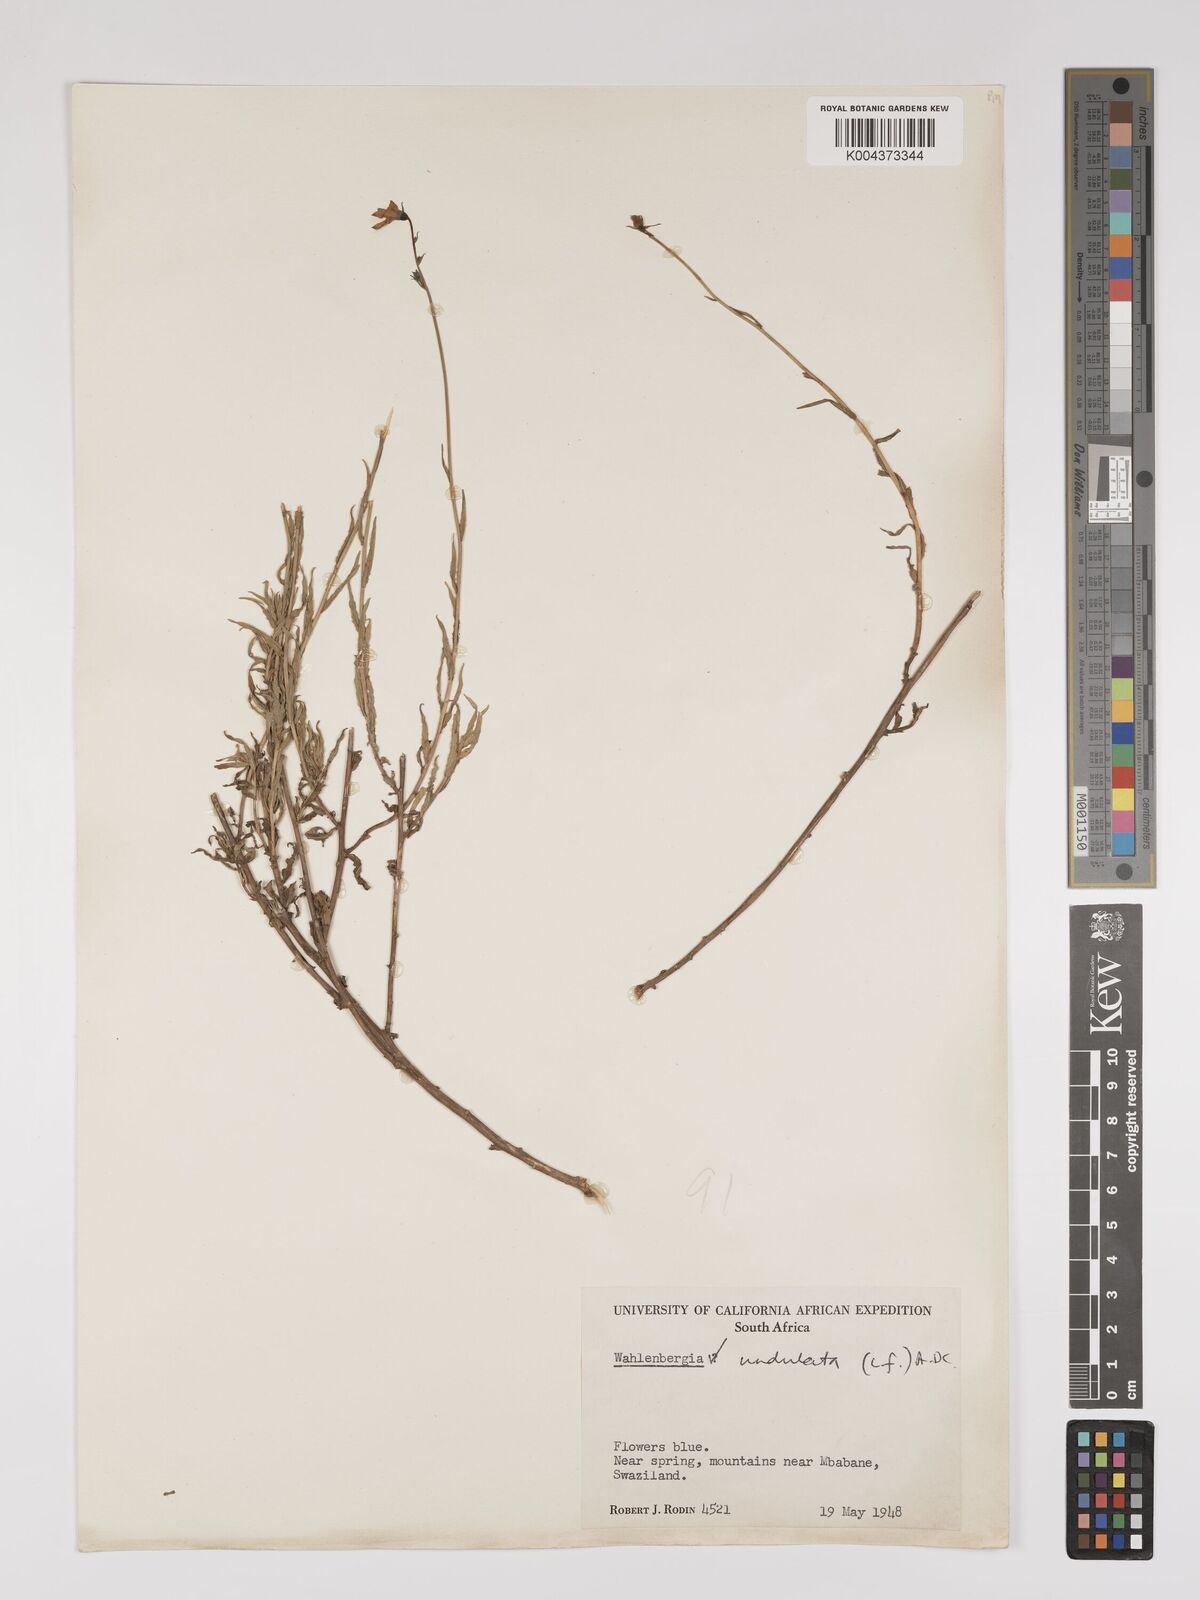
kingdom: Plantae
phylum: Tracheophyta
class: Magnoliopsida
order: Asterales
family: Campanulaceae
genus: Wahlenbergia
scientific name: Wahlenbergia undulata
